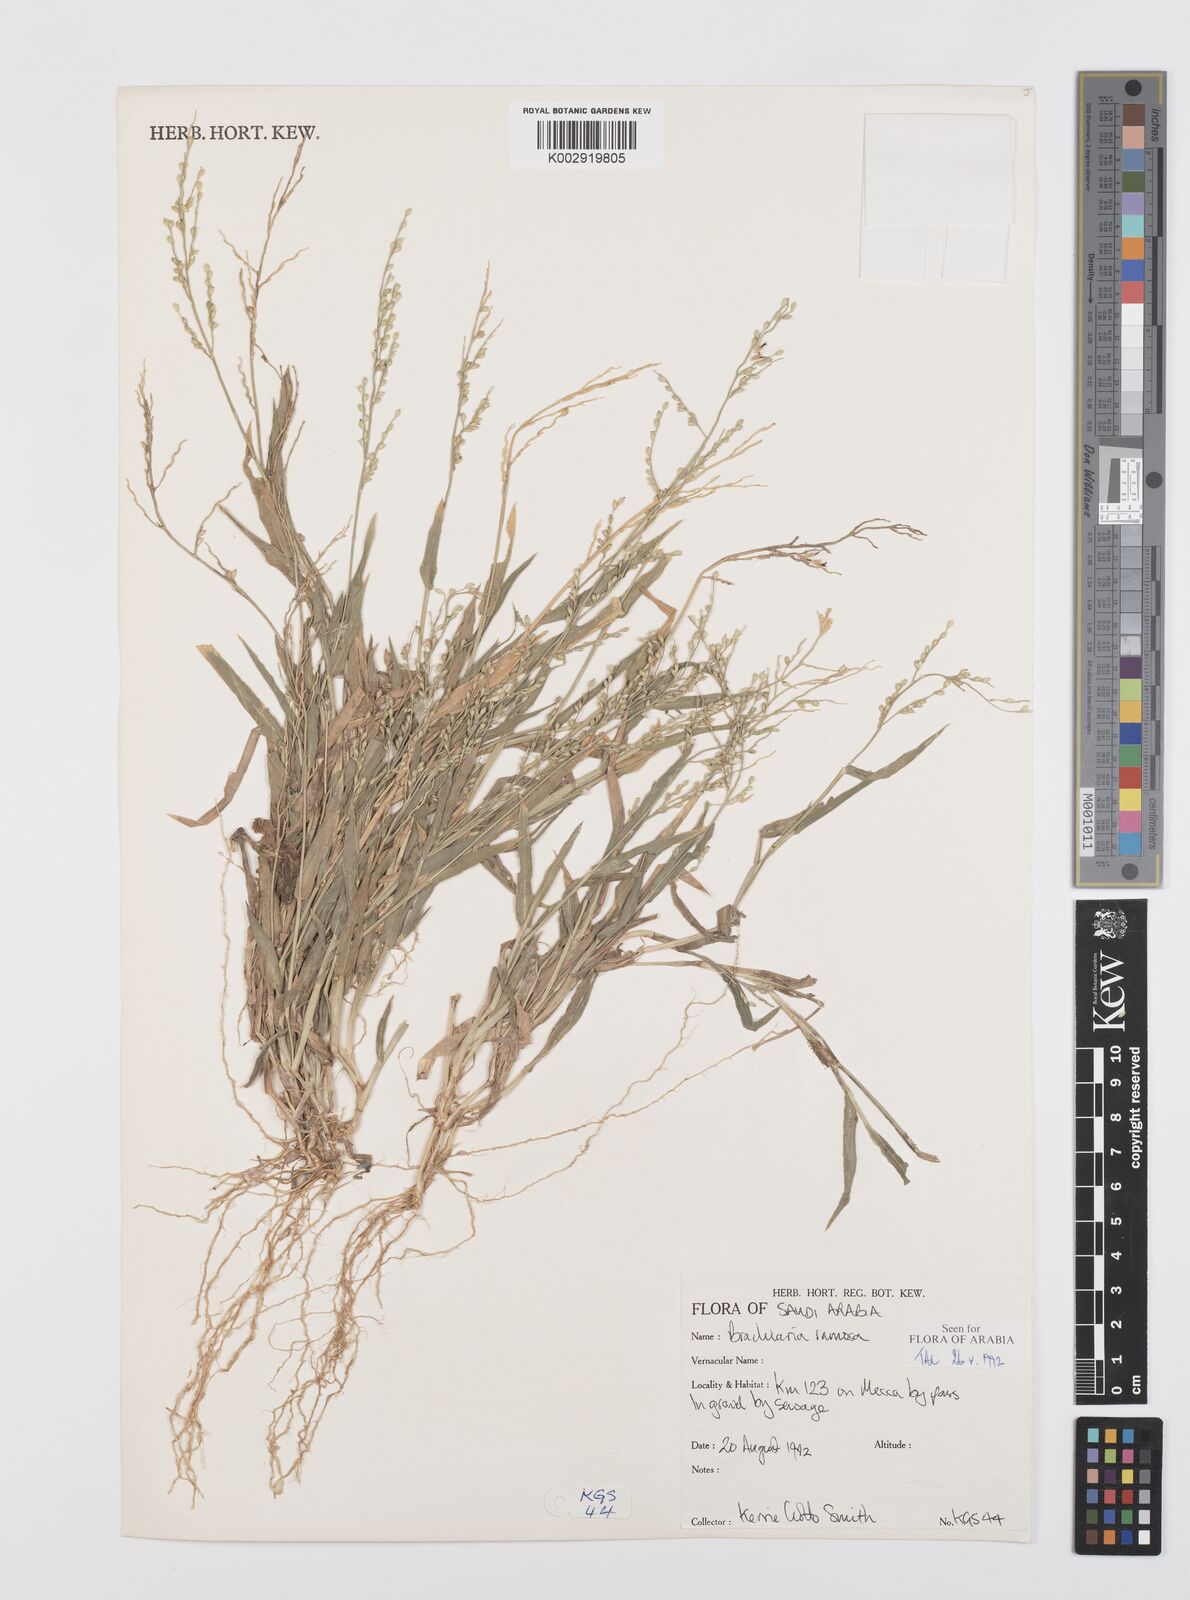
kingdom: Plantae
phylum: Tracheophyta
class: Liliopsida
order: Poales
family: Poaceae
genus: Urochloa
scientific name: Urochloa ramosa
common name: Browntop millet
